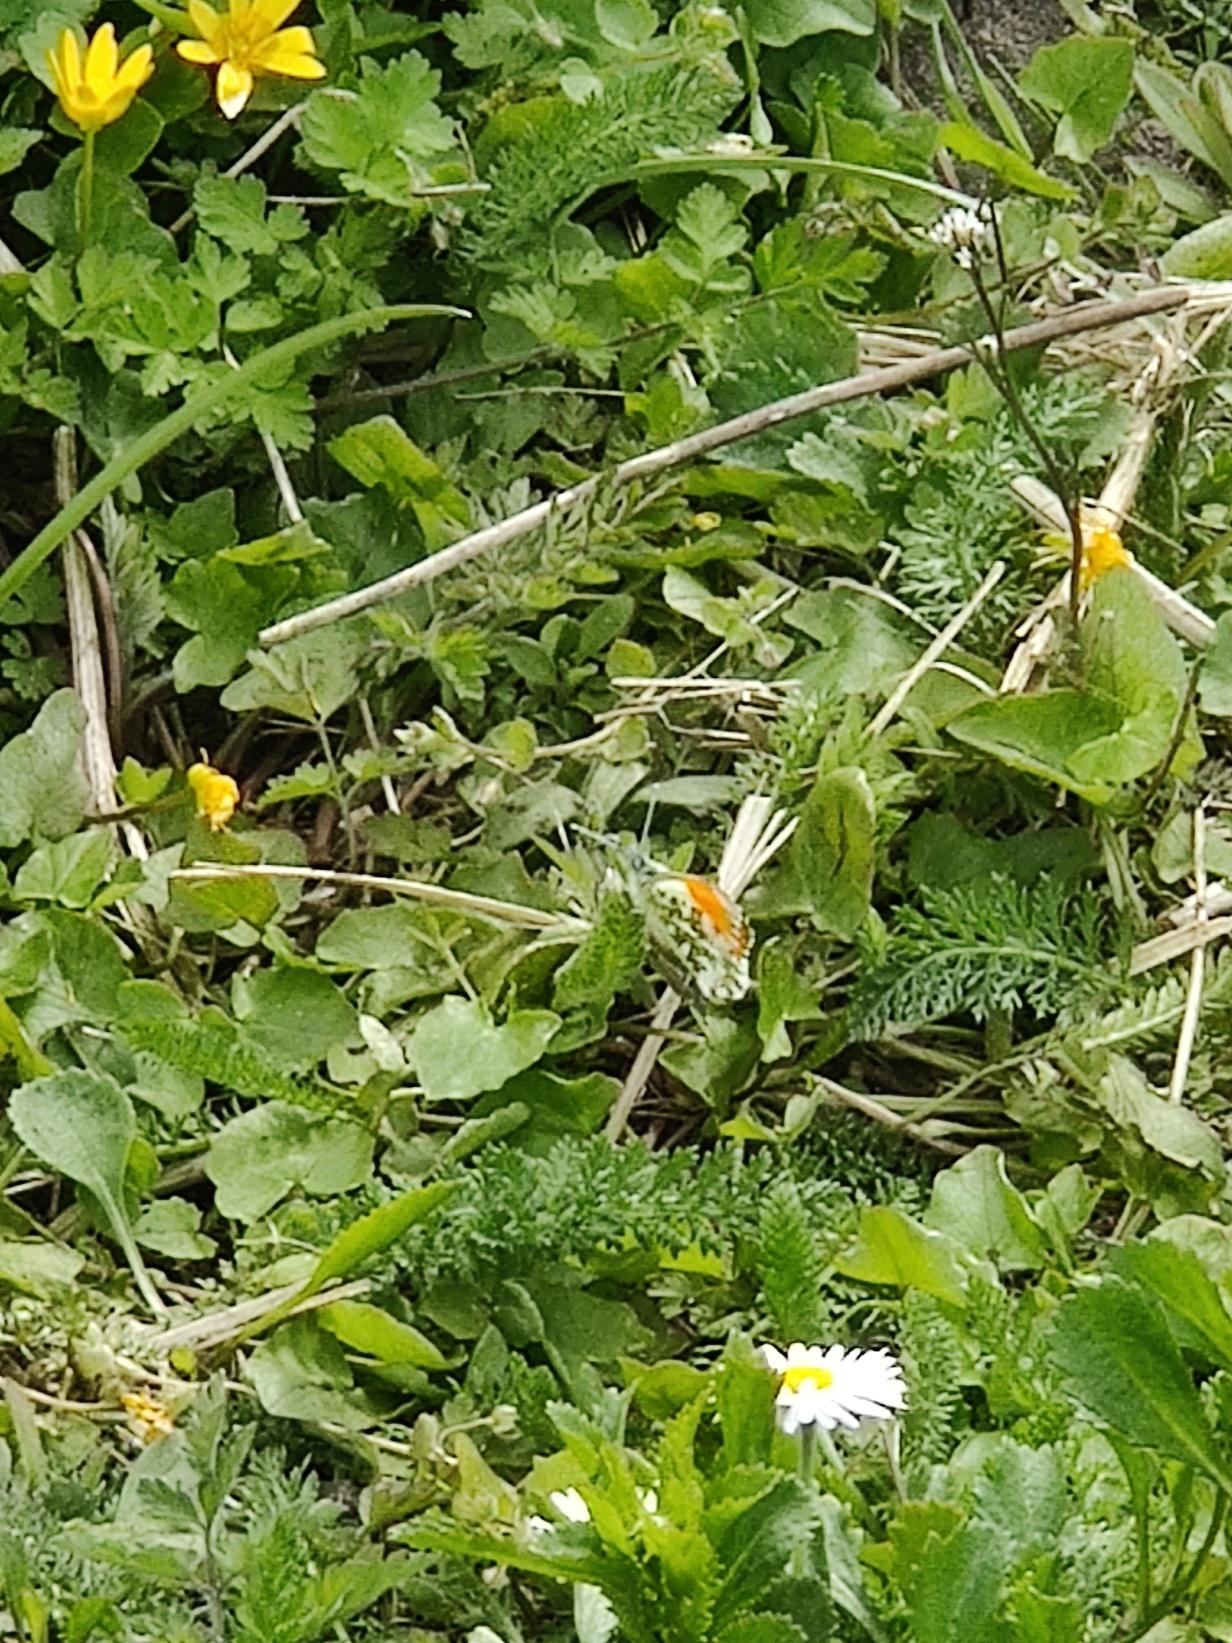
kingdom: Animalia
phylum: Arthropoda
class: Insecta
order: Lepidoptera
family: Pieridae
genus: Anthocharis
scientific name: Anthocharis cardamines
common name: Aurora
